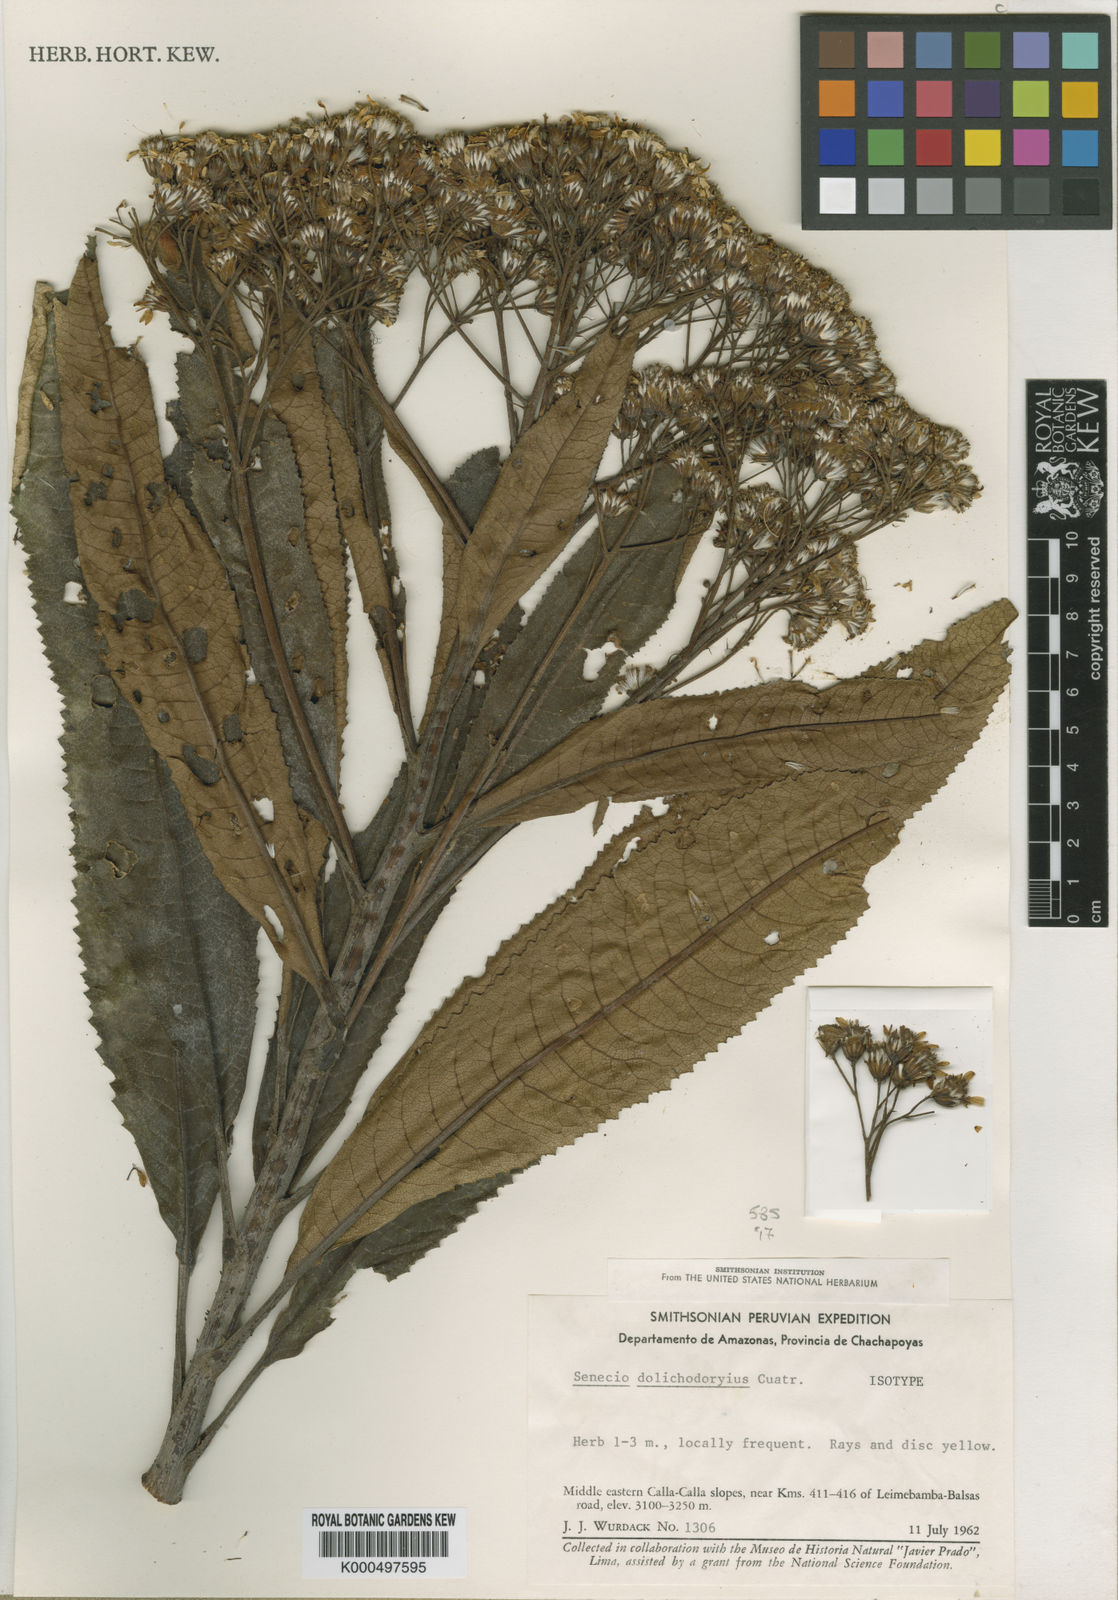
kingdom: Plantae
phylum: Tracheophyta
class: Magnoliopsida
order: Asterales
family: Asteraceae
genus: Dendrophorbium
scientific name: Dendrophorbium dolichodoryium
